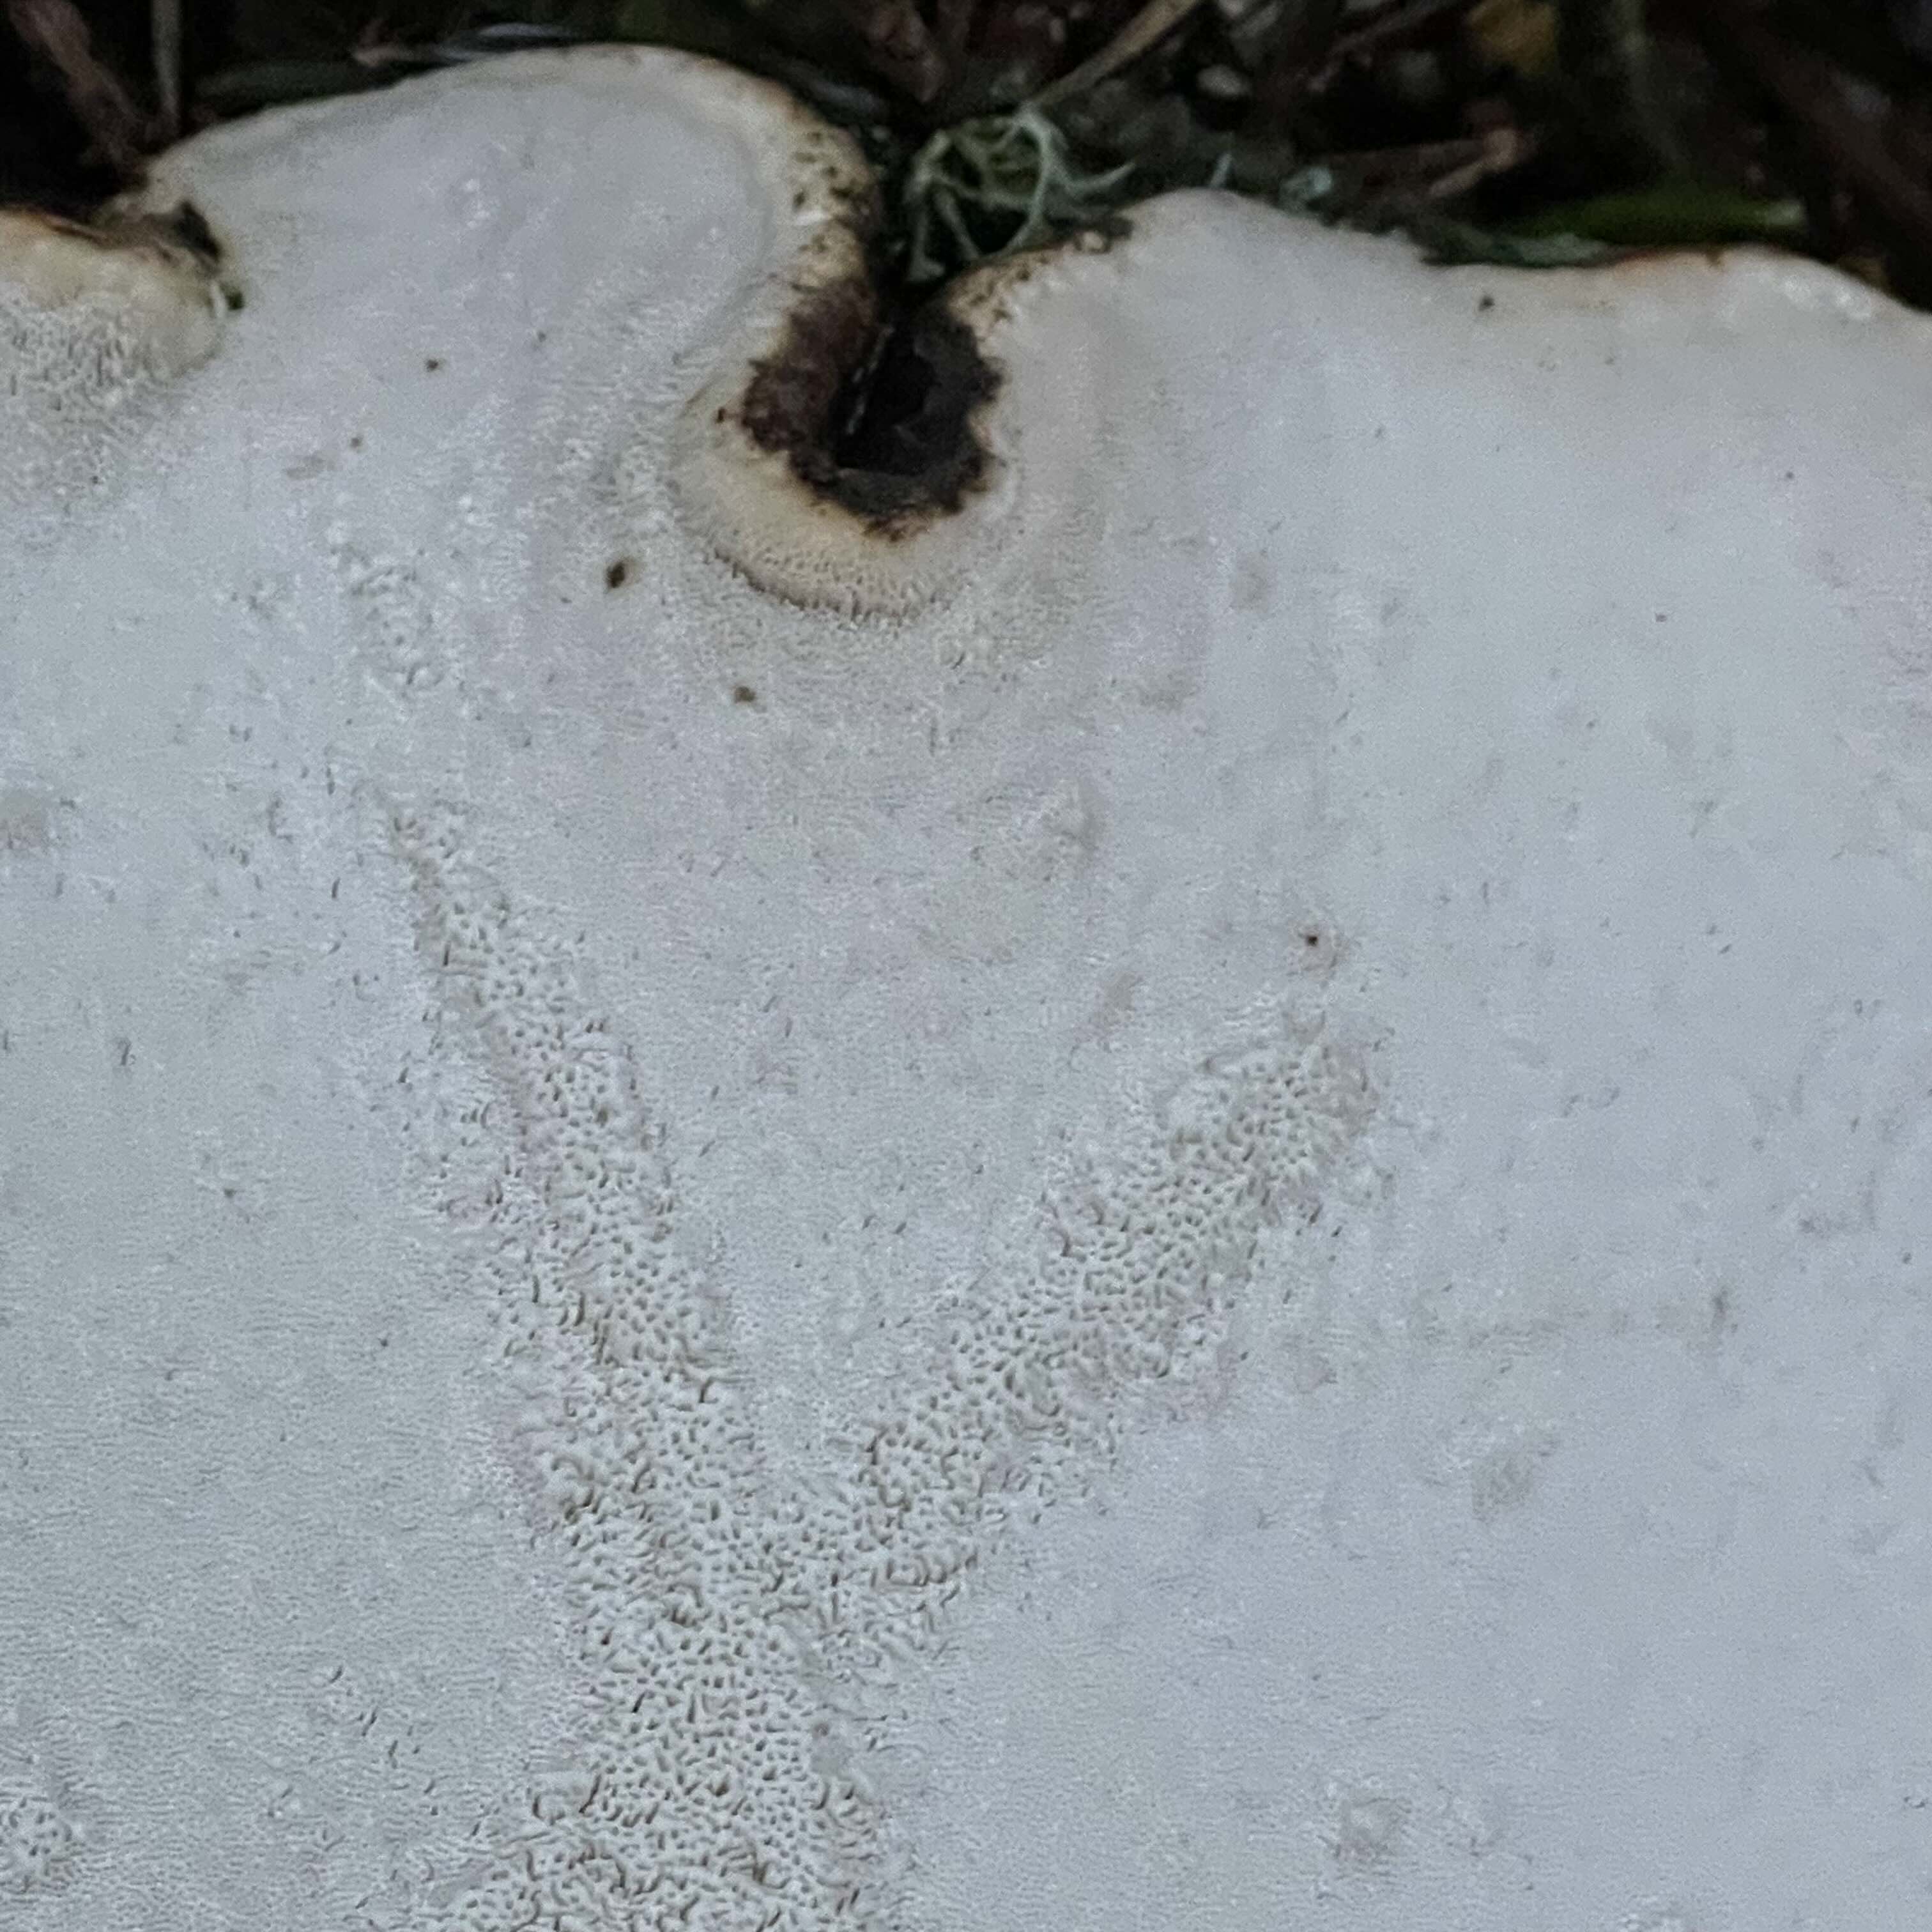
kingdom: Fungi
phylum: Basidiomycota
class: Agaricomycetes
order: Polyporales
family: Fomitopsidaceae
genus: Fomitopsis
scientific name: Fomitopsis betulina
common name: birkeporesvamp
